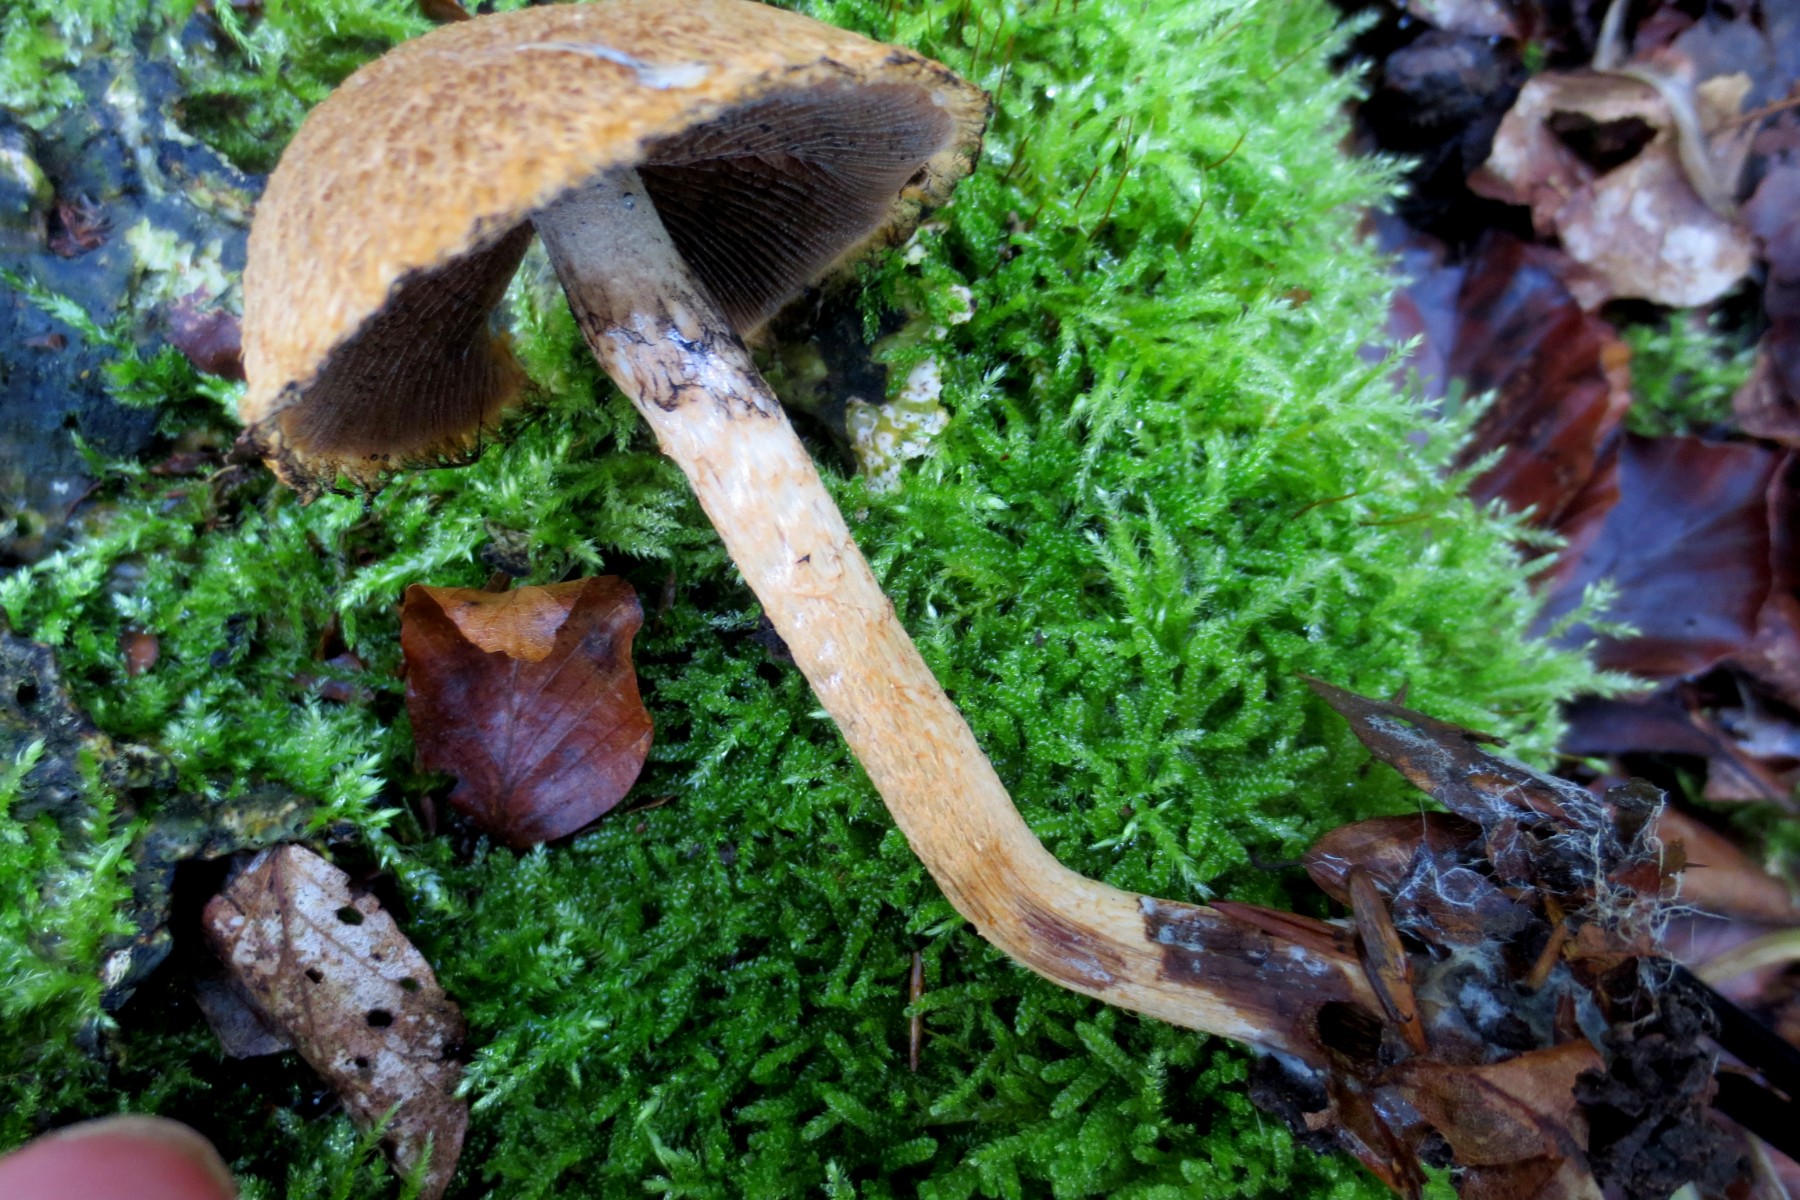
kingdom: Fungi
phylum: Basidiomycota
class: Agaricomycetes
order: Agaricales
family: Psathyrellaceae
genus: Lacrymaria
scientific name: Lacrymaria pyrotricha
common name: ildhåret mørkhat
